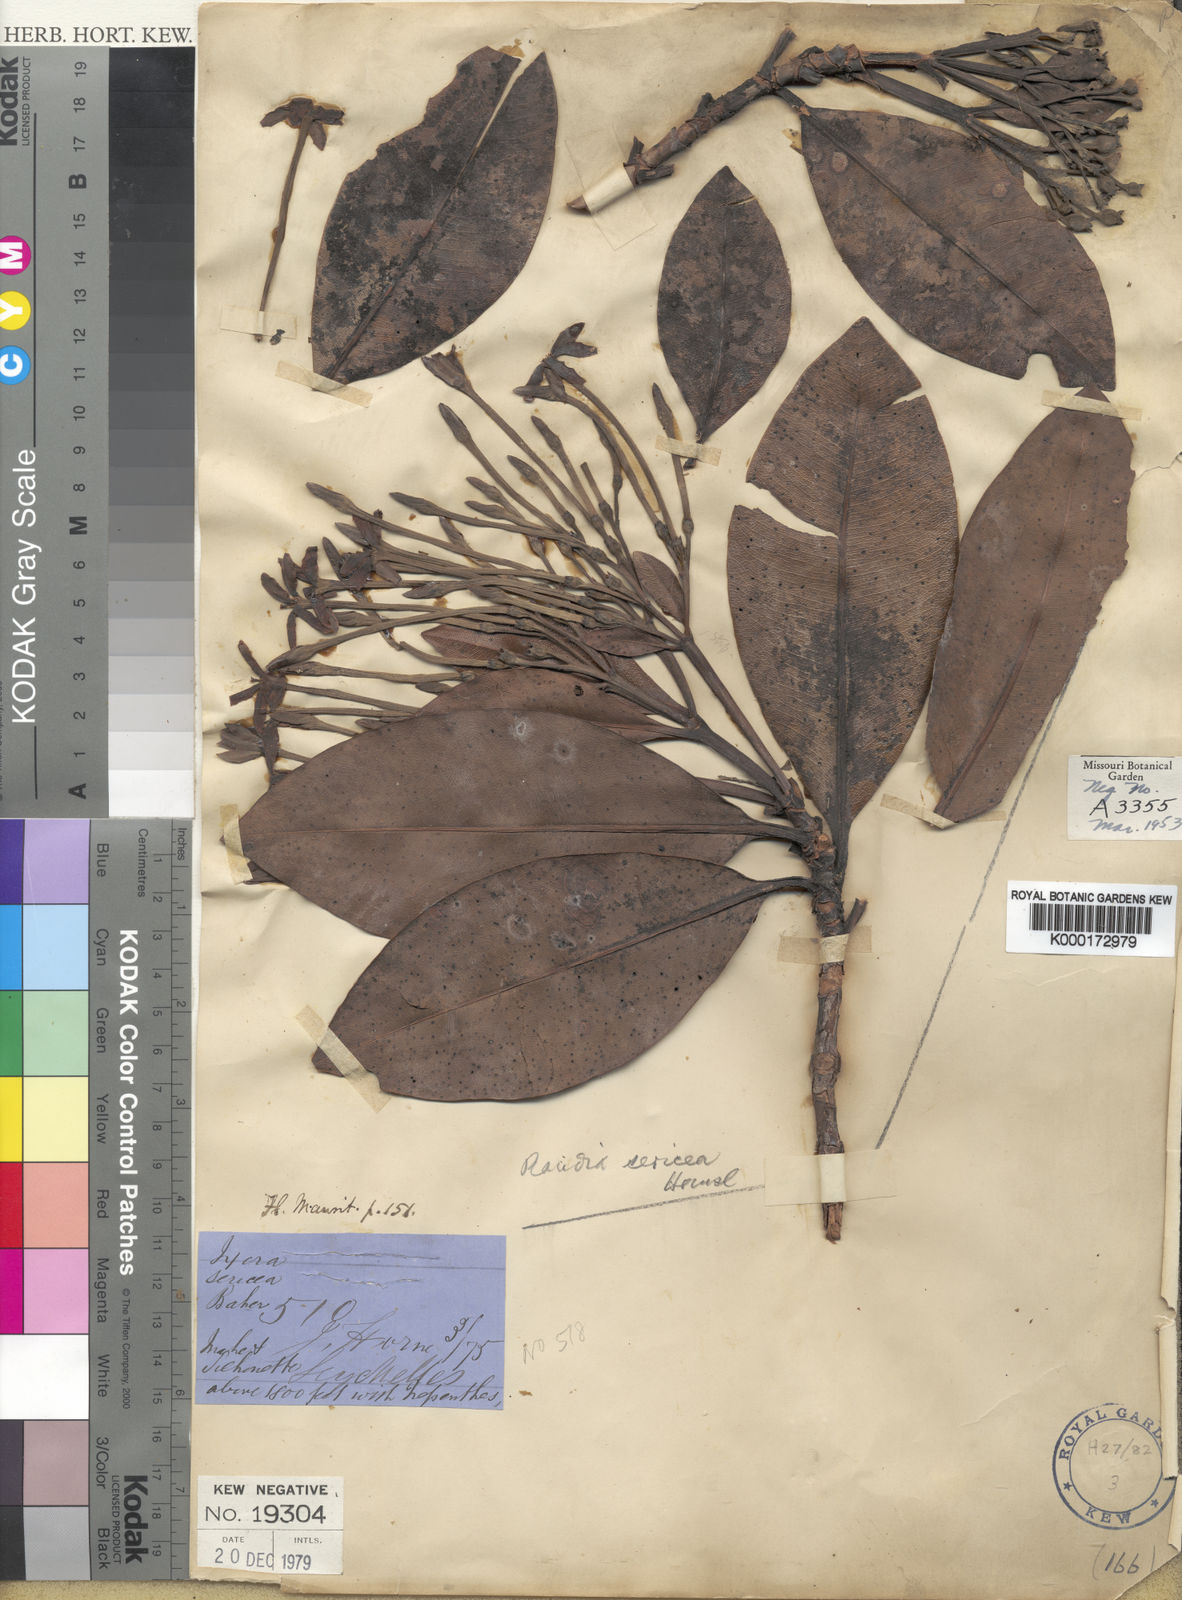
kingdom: Plantae
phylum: Tracheophyta
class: Magnoliopsida
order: Gentianales
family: Rubiaceae
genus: Glionnetia
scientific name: Glionnetia sericea
